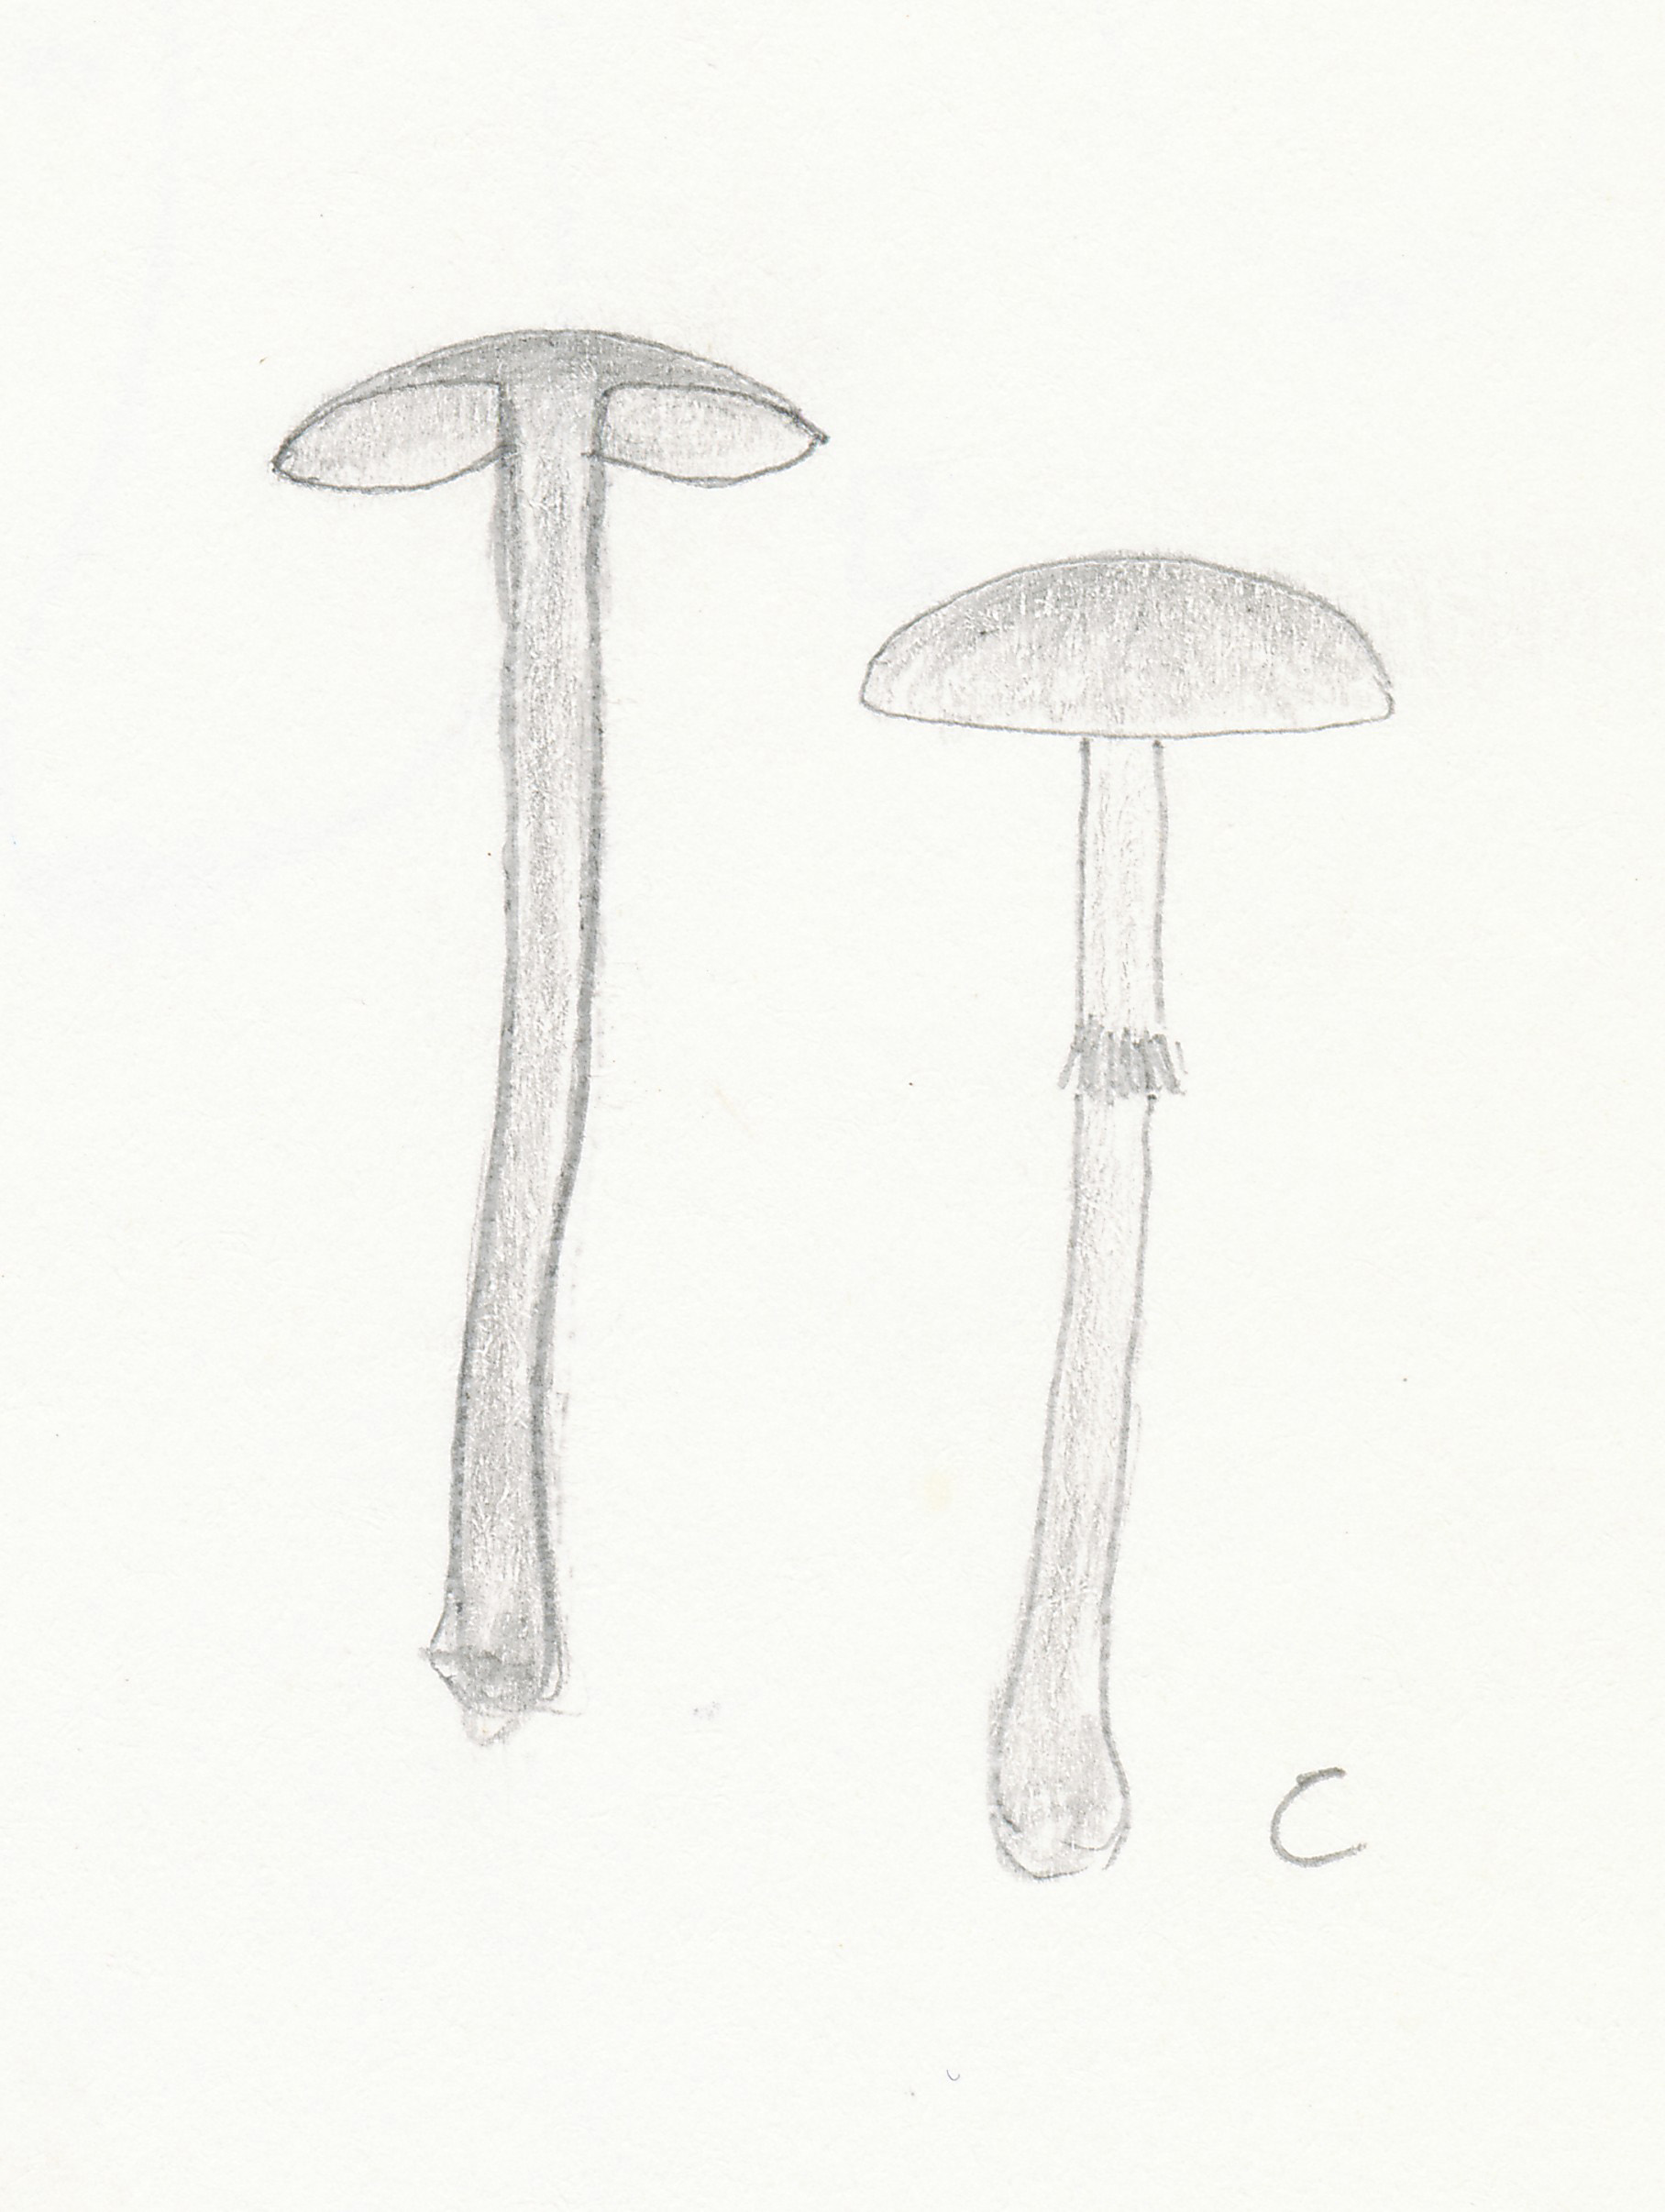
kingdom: Fungi
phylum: Basidiomycota
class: Agaricomycetes
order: Agaricales
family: Bolbitiaceae
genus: Conocybe
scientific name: Conocybe arrhenii
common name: ring-dansehat
